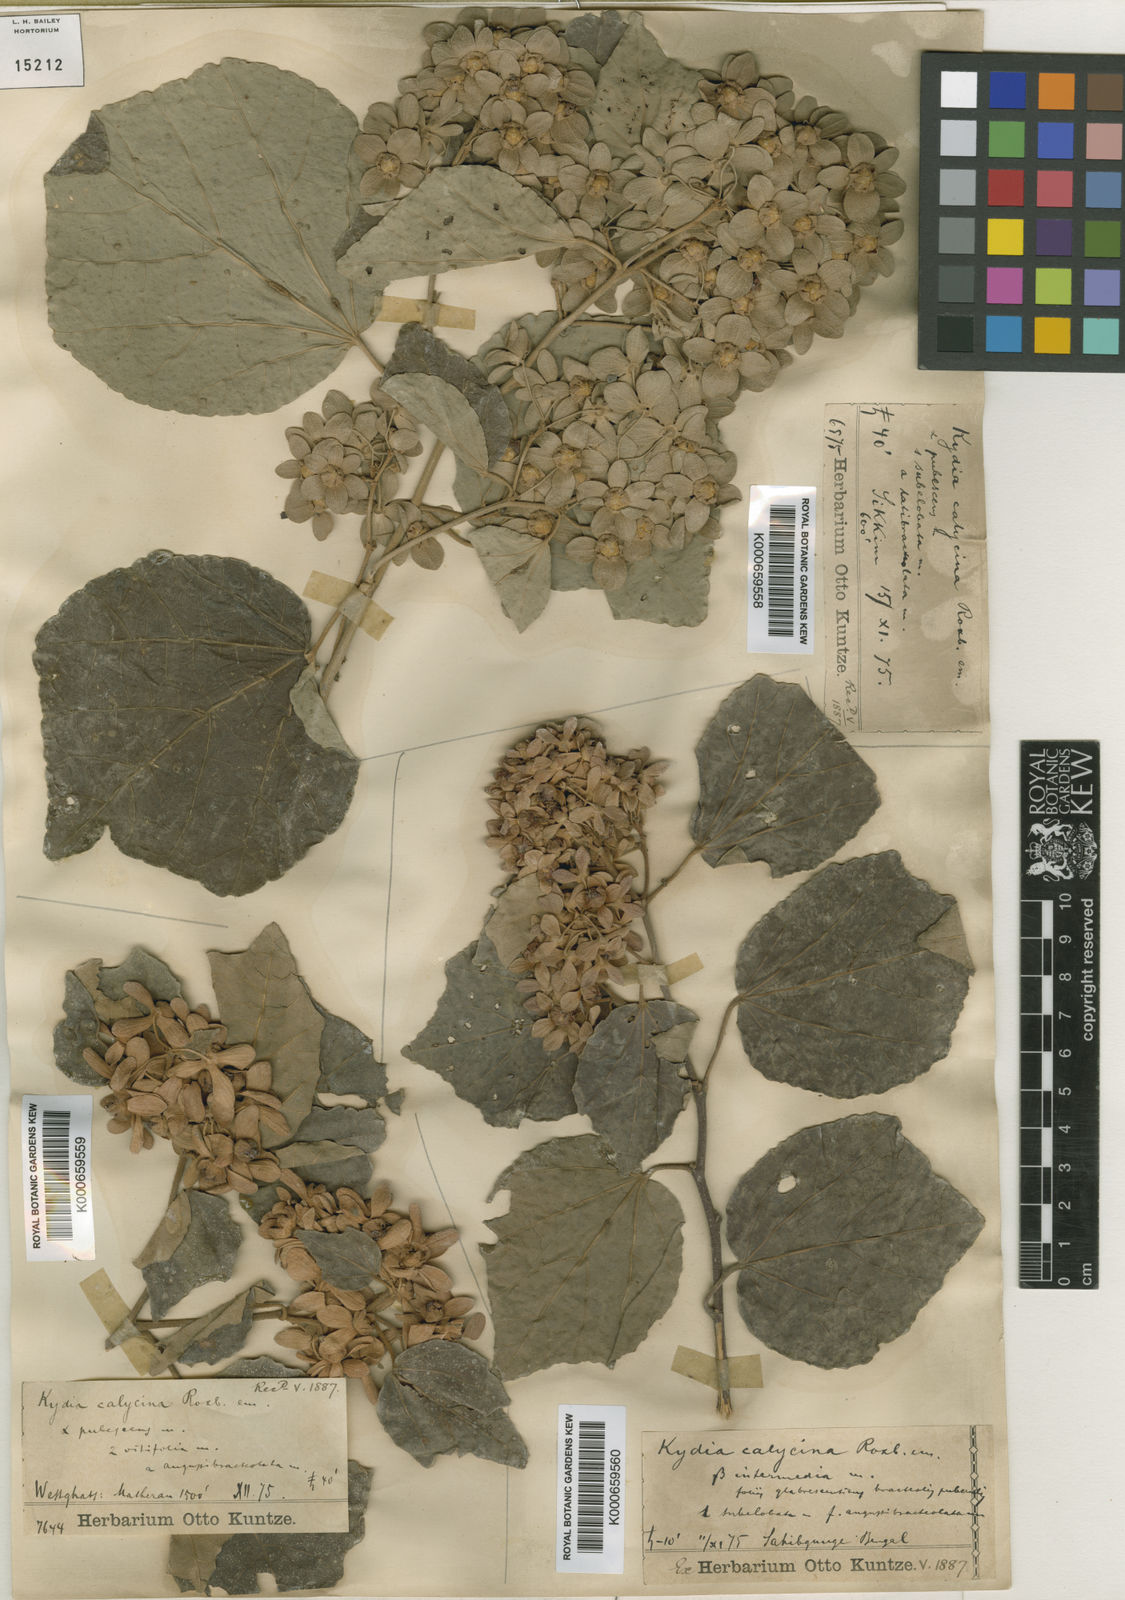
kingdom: Plantae
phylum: Tracheophyta
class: Magnoliopsida
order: Malvales
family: Malvaceae
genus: Kydia
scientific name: Kydia calycina
